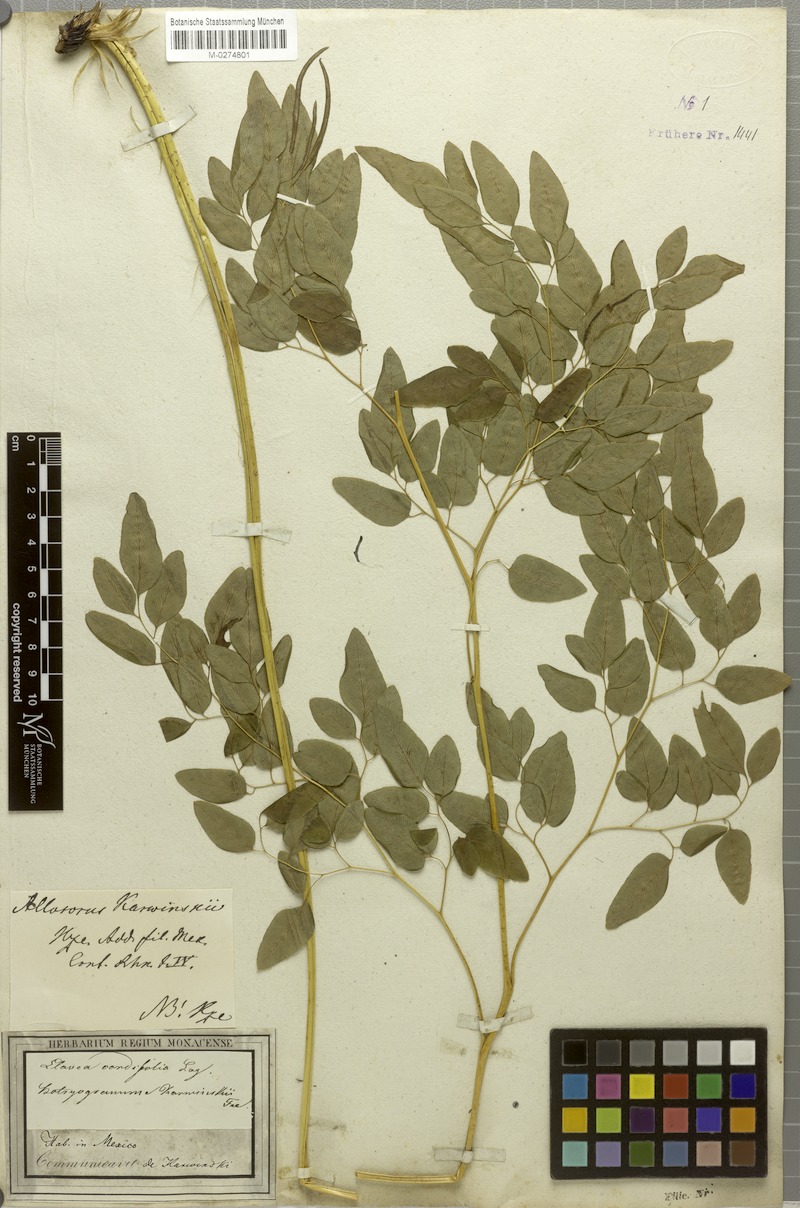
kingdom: Plantae
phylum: Tracheophyta
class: Polypodiopsida
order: Polypodiales
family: Pteridaceae
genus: Llavea
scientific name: Llavea cordifolia
